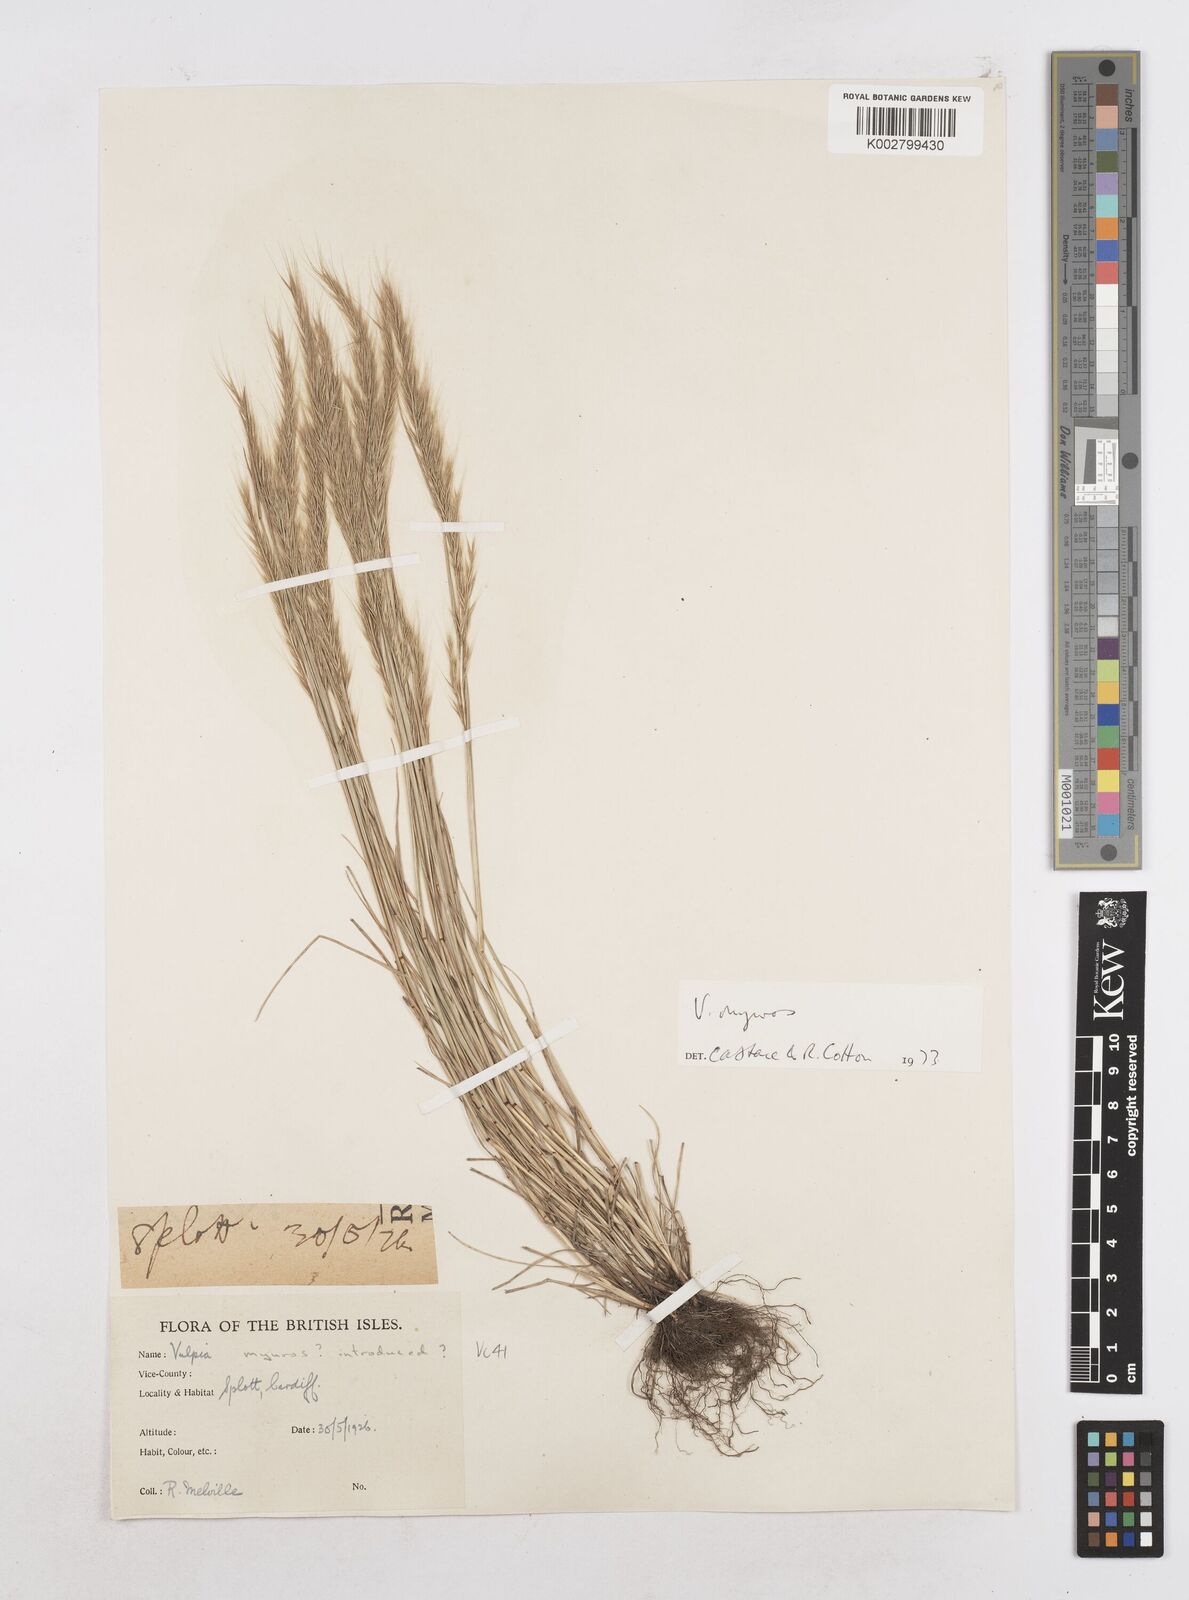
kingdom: Plantae
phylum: Tracheophyta
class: Liliopsida
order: Poales
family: Poaceae
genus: Festuca
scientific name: Festuca myuros
